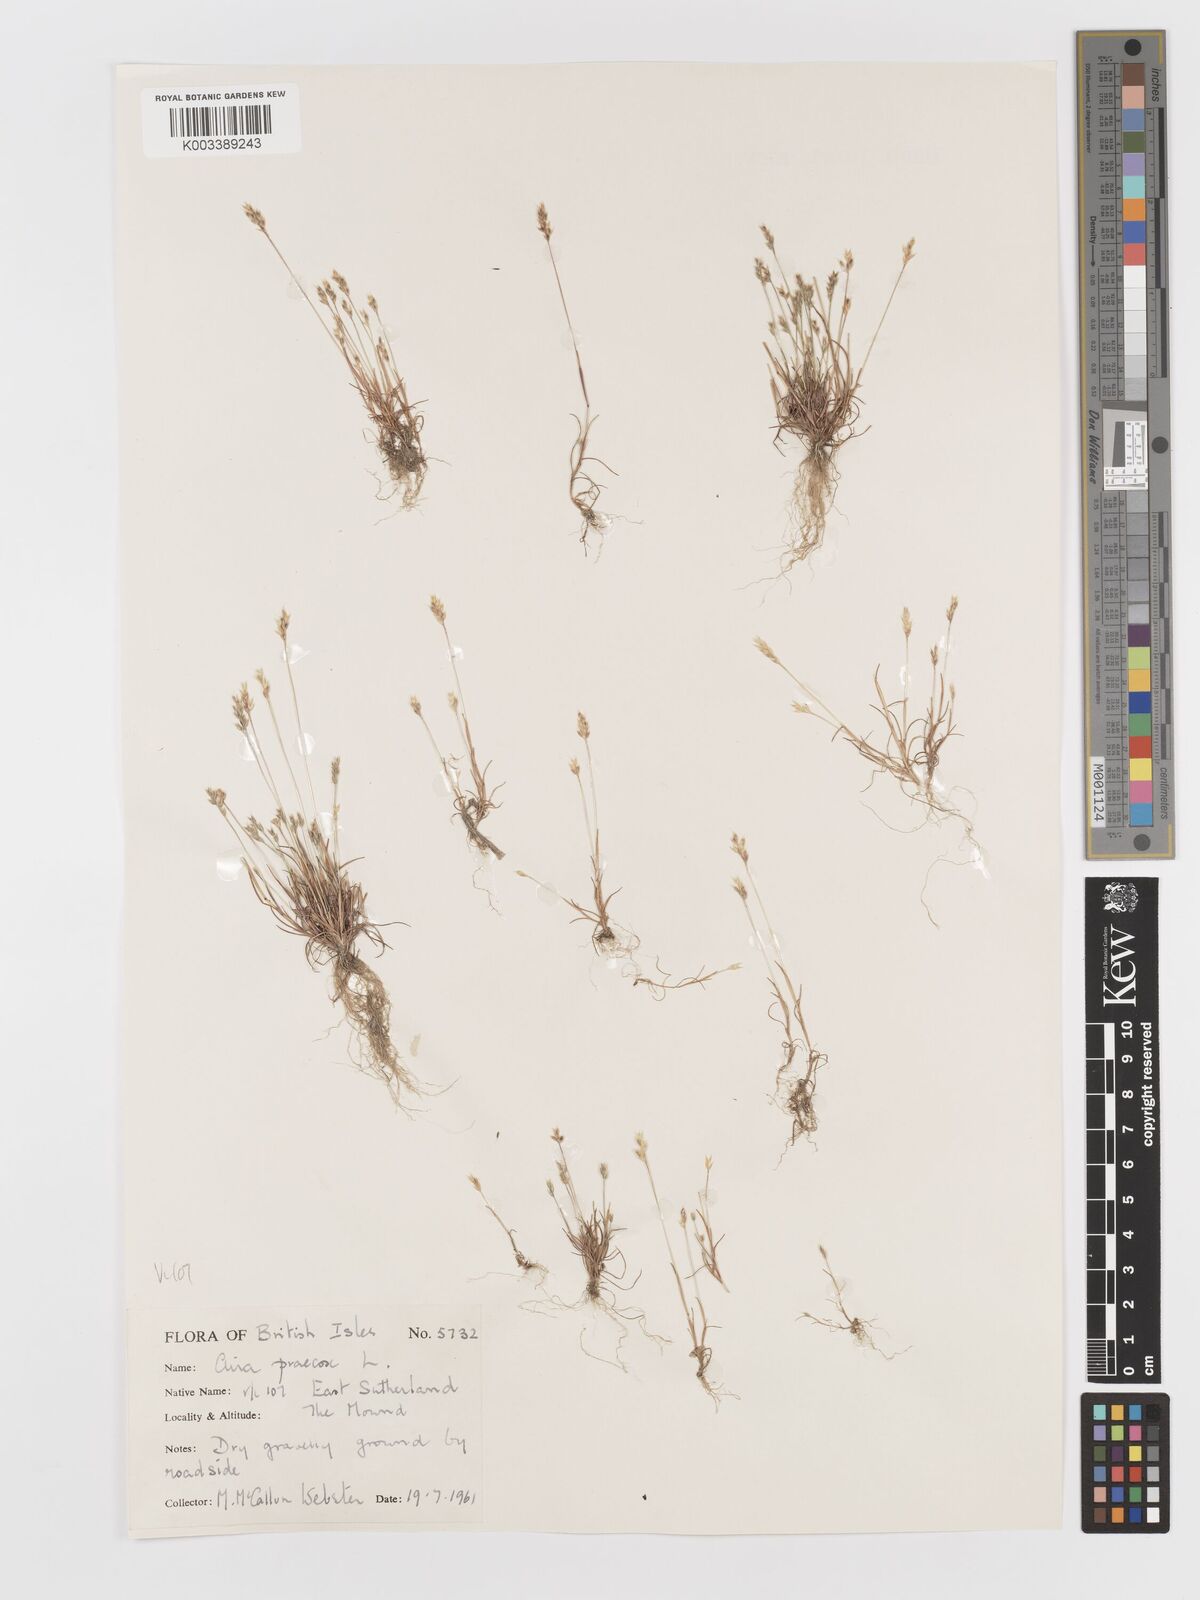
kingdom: Plantae
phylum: Tracheophyta
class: Liliopsida
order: Poales
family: Poaceae
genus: Aira
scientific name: Aira praecox
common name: Early hair-grass
